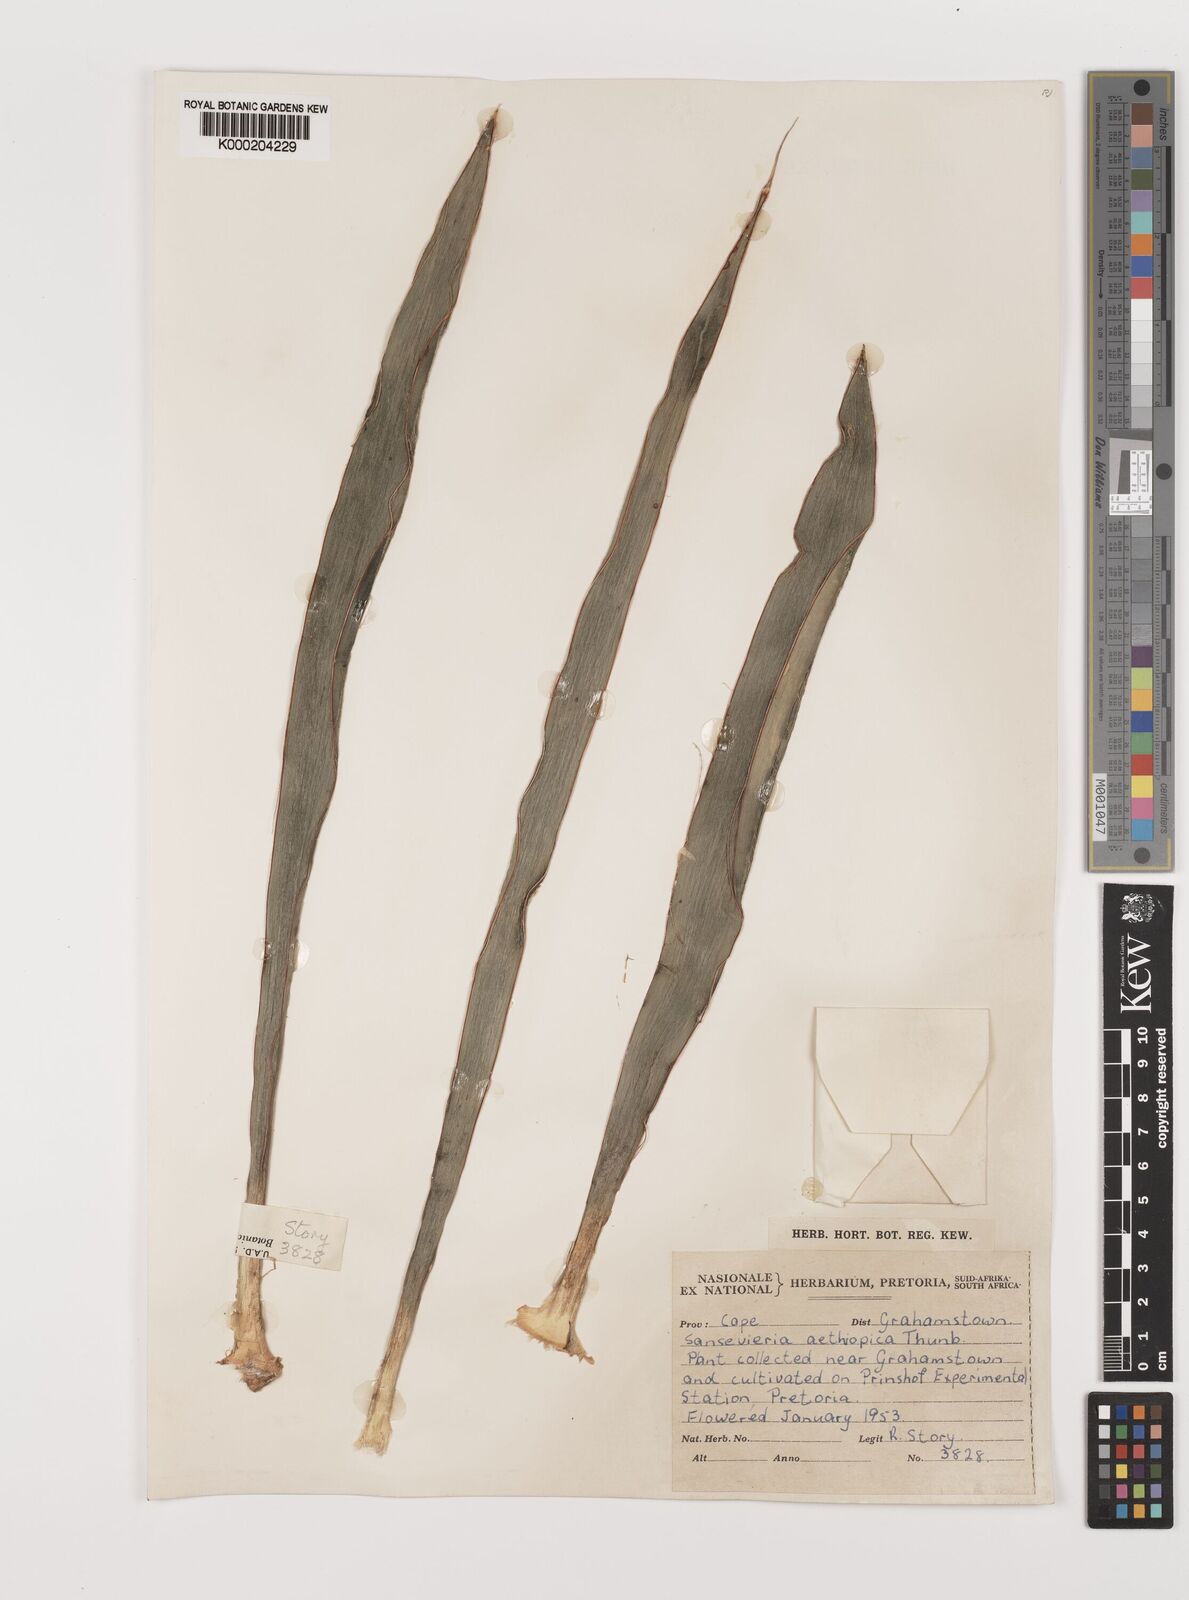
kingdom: Plantae
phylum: Tracheophyta
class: Liliopsida
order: Asparagales
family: Asparagaceae
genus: Dracaena
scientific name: Dracaena aethiopica
